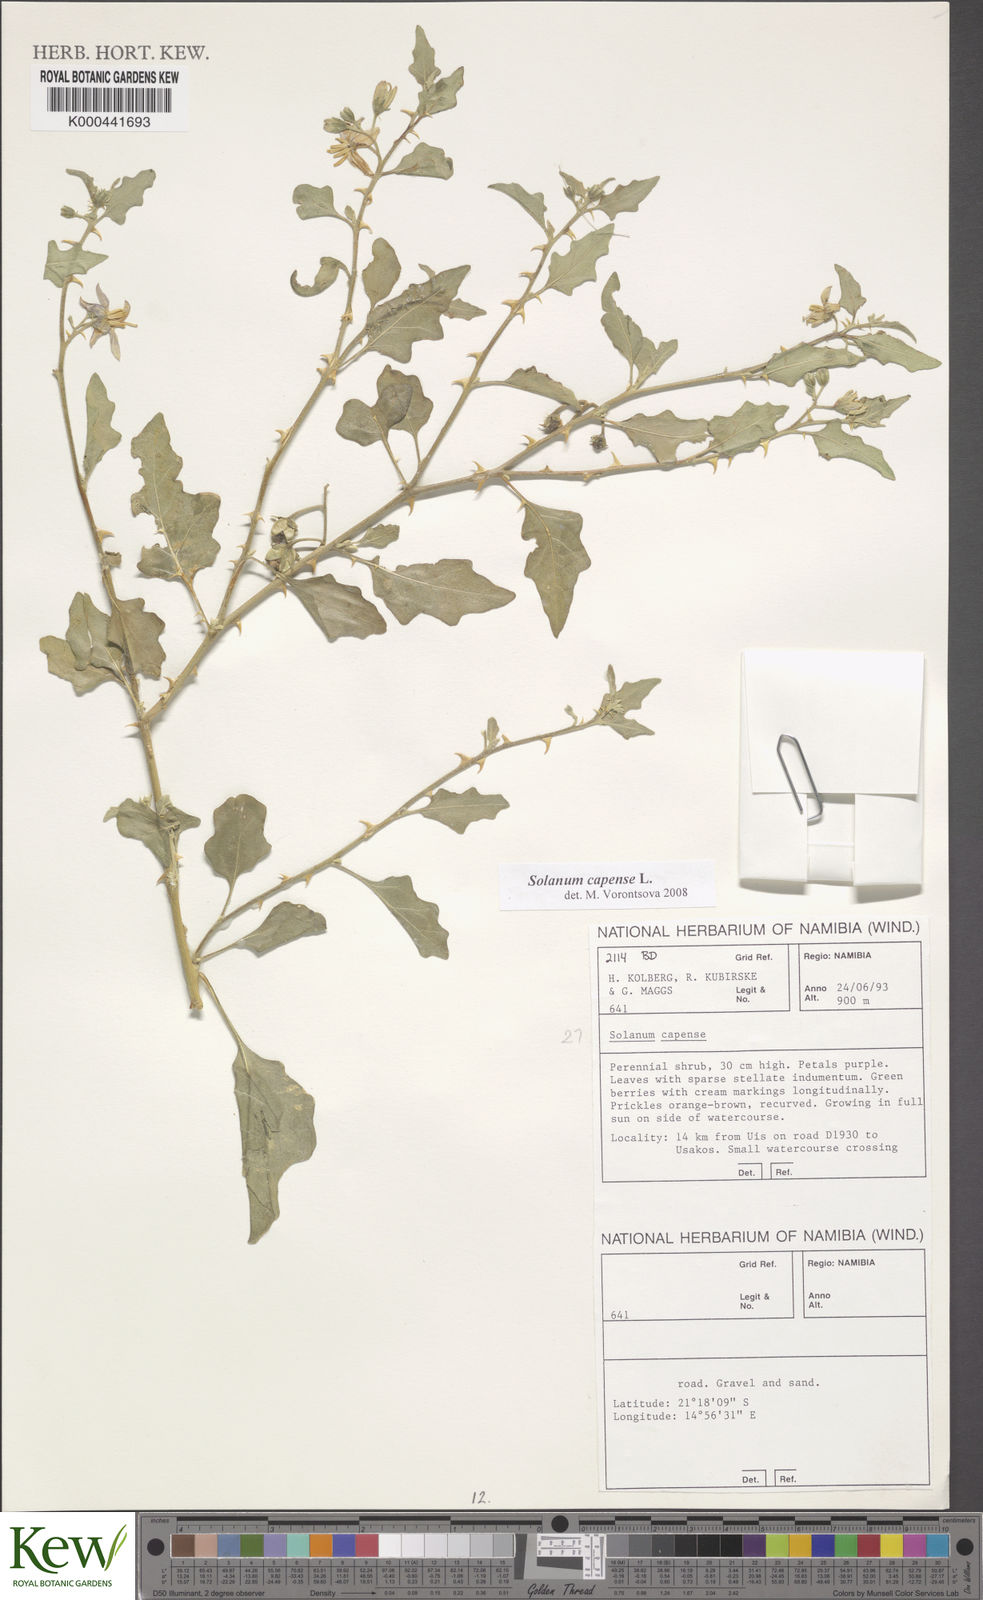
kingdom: Plantae
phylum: Tracheophyta
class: Magnoliopsida
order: Solanales
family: Solanaceae
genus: Solanum
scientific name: Solanum capense
